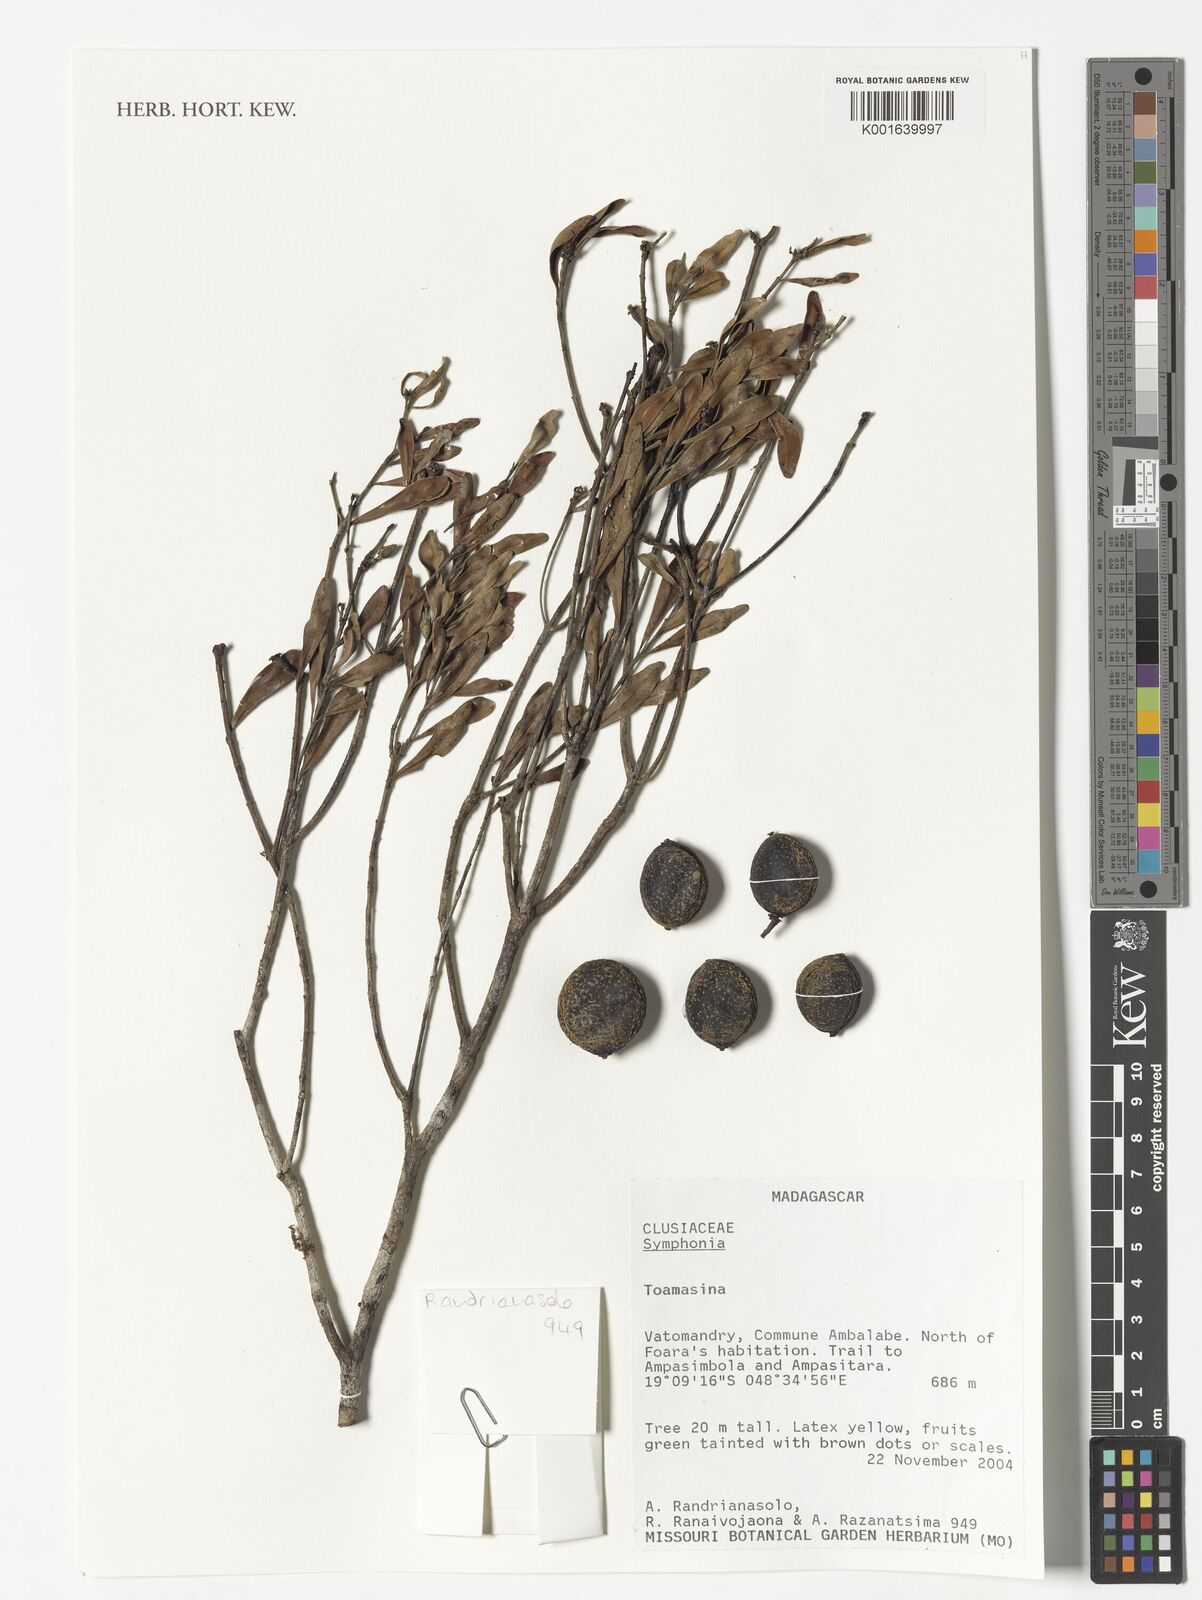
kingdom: Plantae
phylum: Tracheophyta
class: Magnoliopsida
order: Malpighiales
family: Clusiaceae
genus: Symphonia
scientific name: Symphonia
